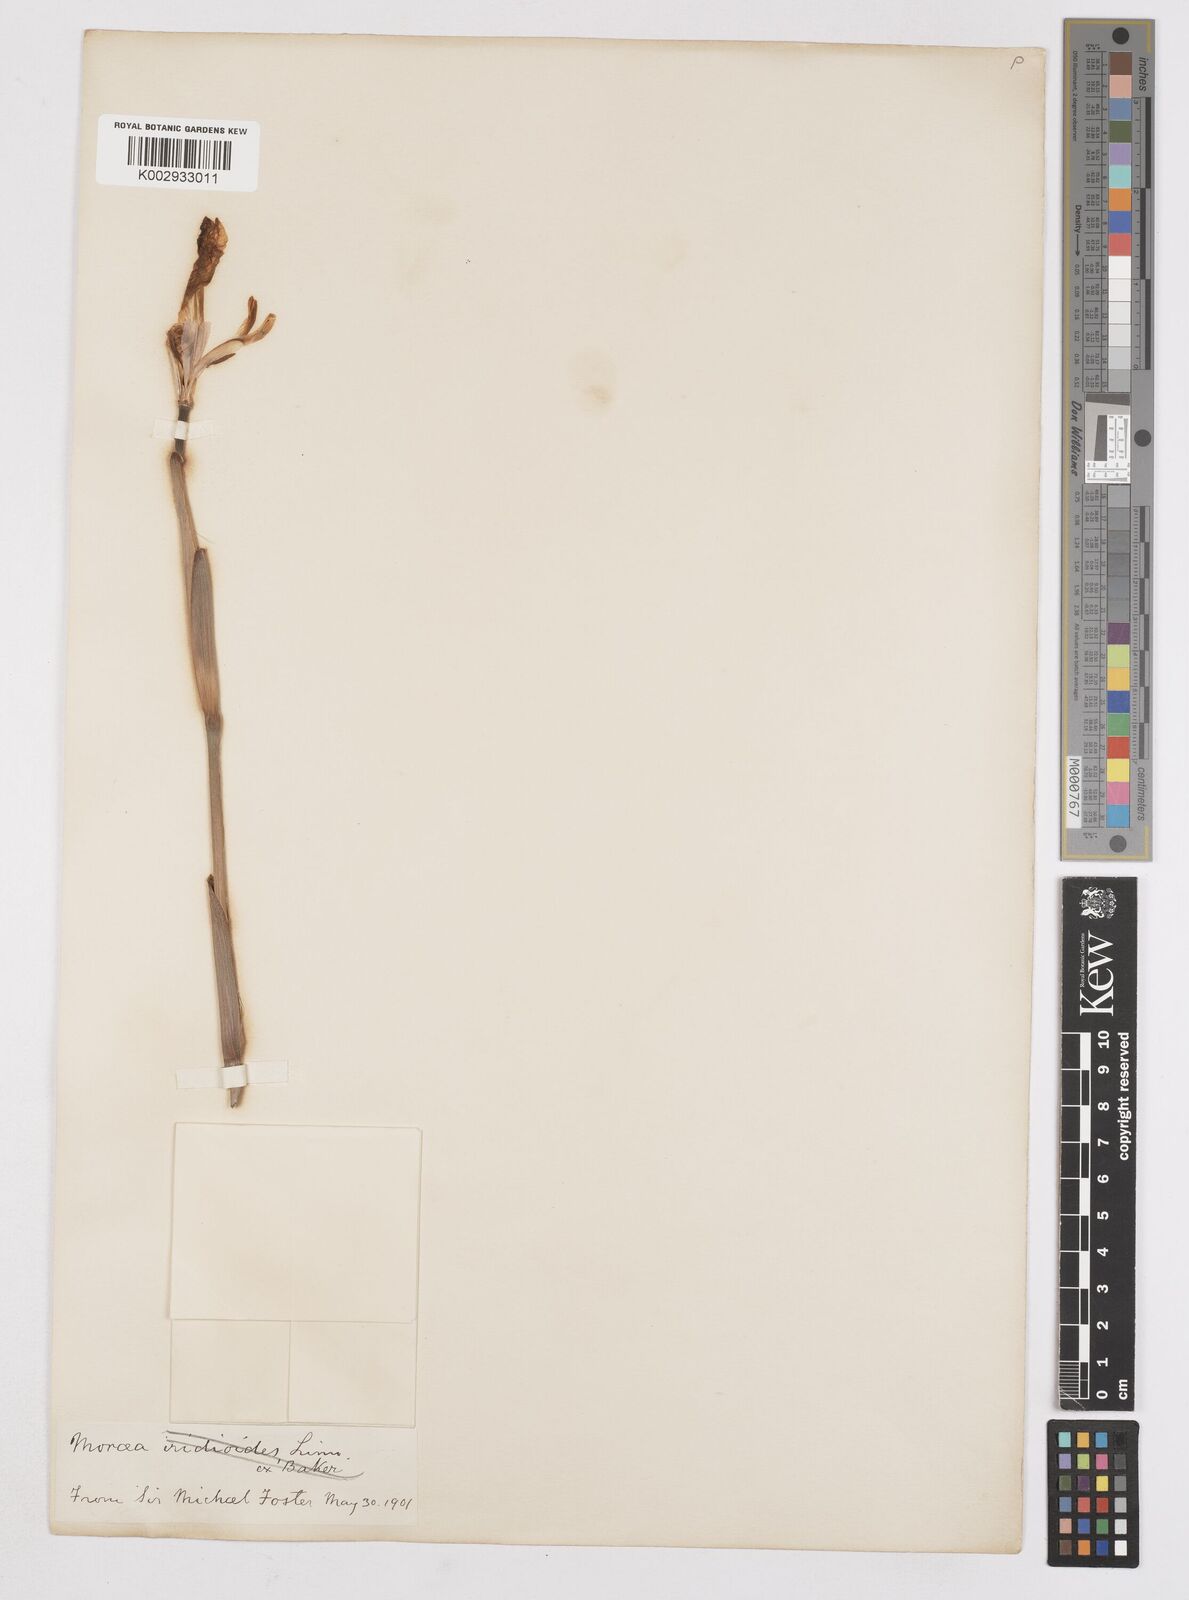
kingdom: Plantae
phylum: Tracheophyta
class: Liliopsida
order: Asparagales
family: Iridaceae
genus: Dietes
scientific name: Dietes grandiflora
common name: Wild iris
